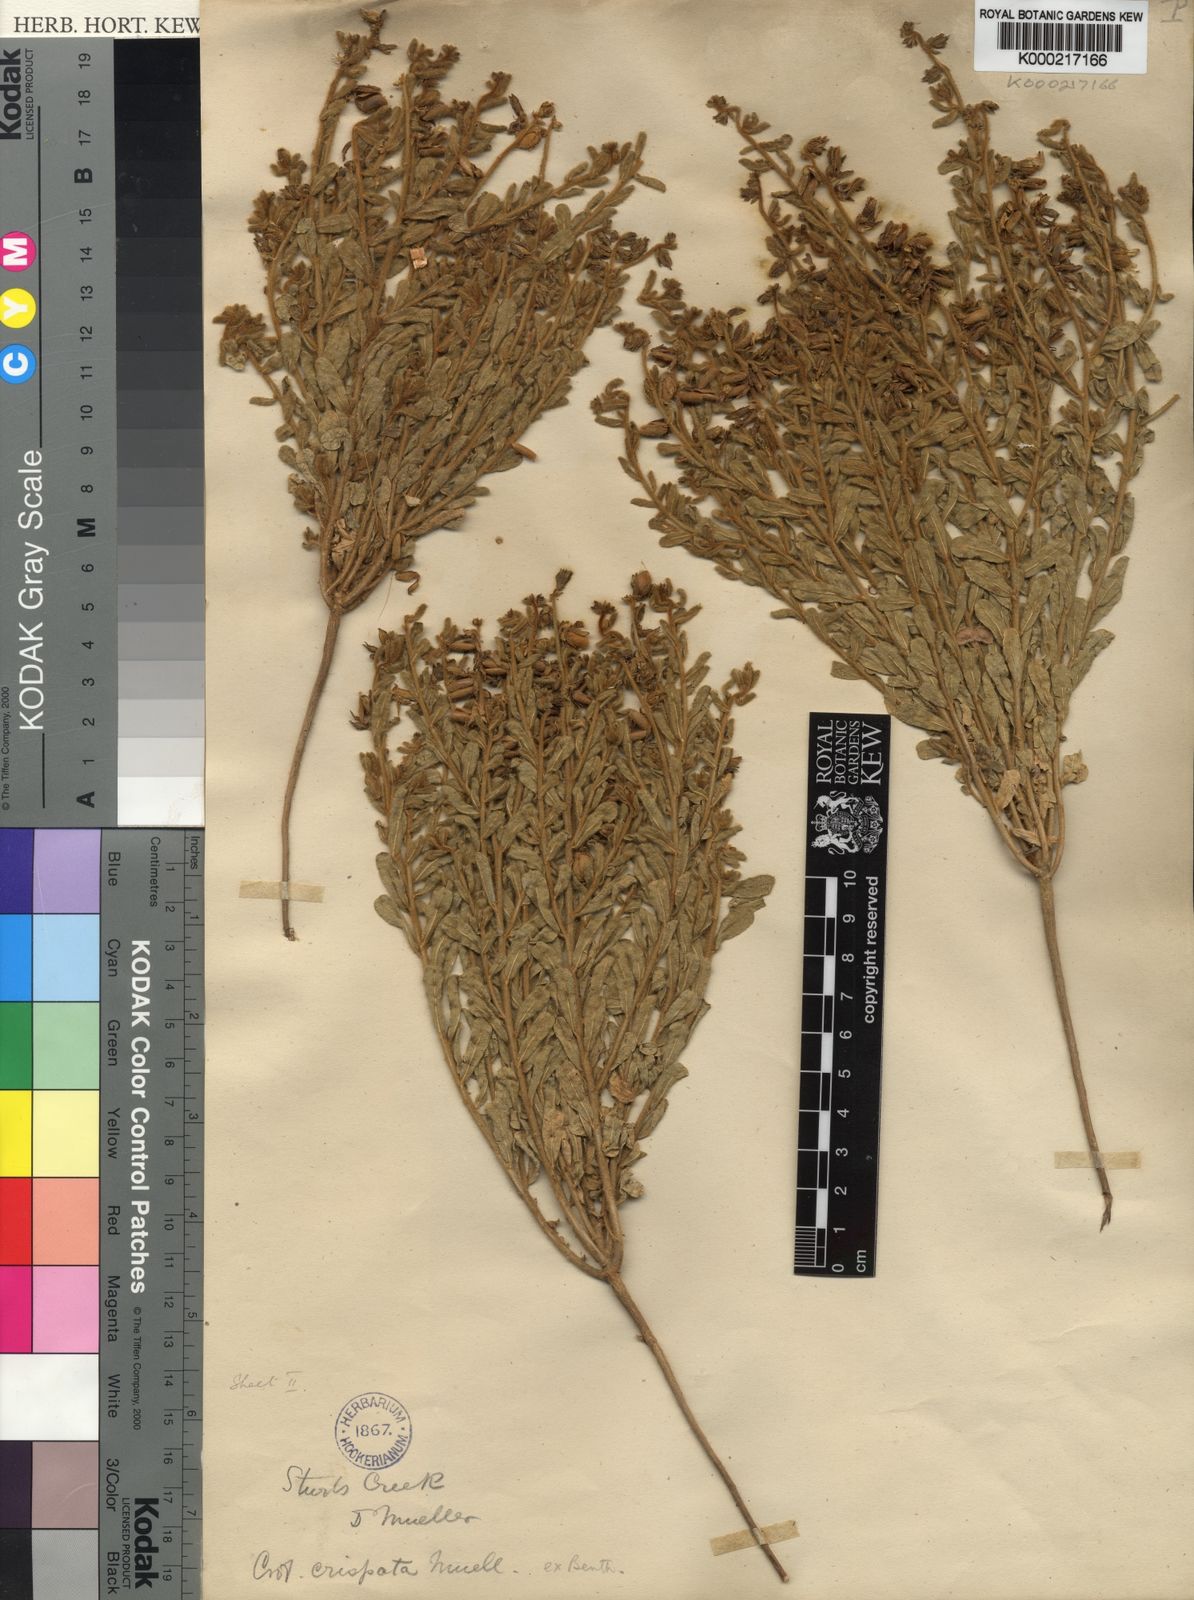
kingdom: Plantae
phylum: Tracheophyta
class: Magnoliopsida
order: Fabales
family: Fabaceae
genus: Crotalaria
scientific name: Crotalaria crispata
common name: Kimberley horse-poison
